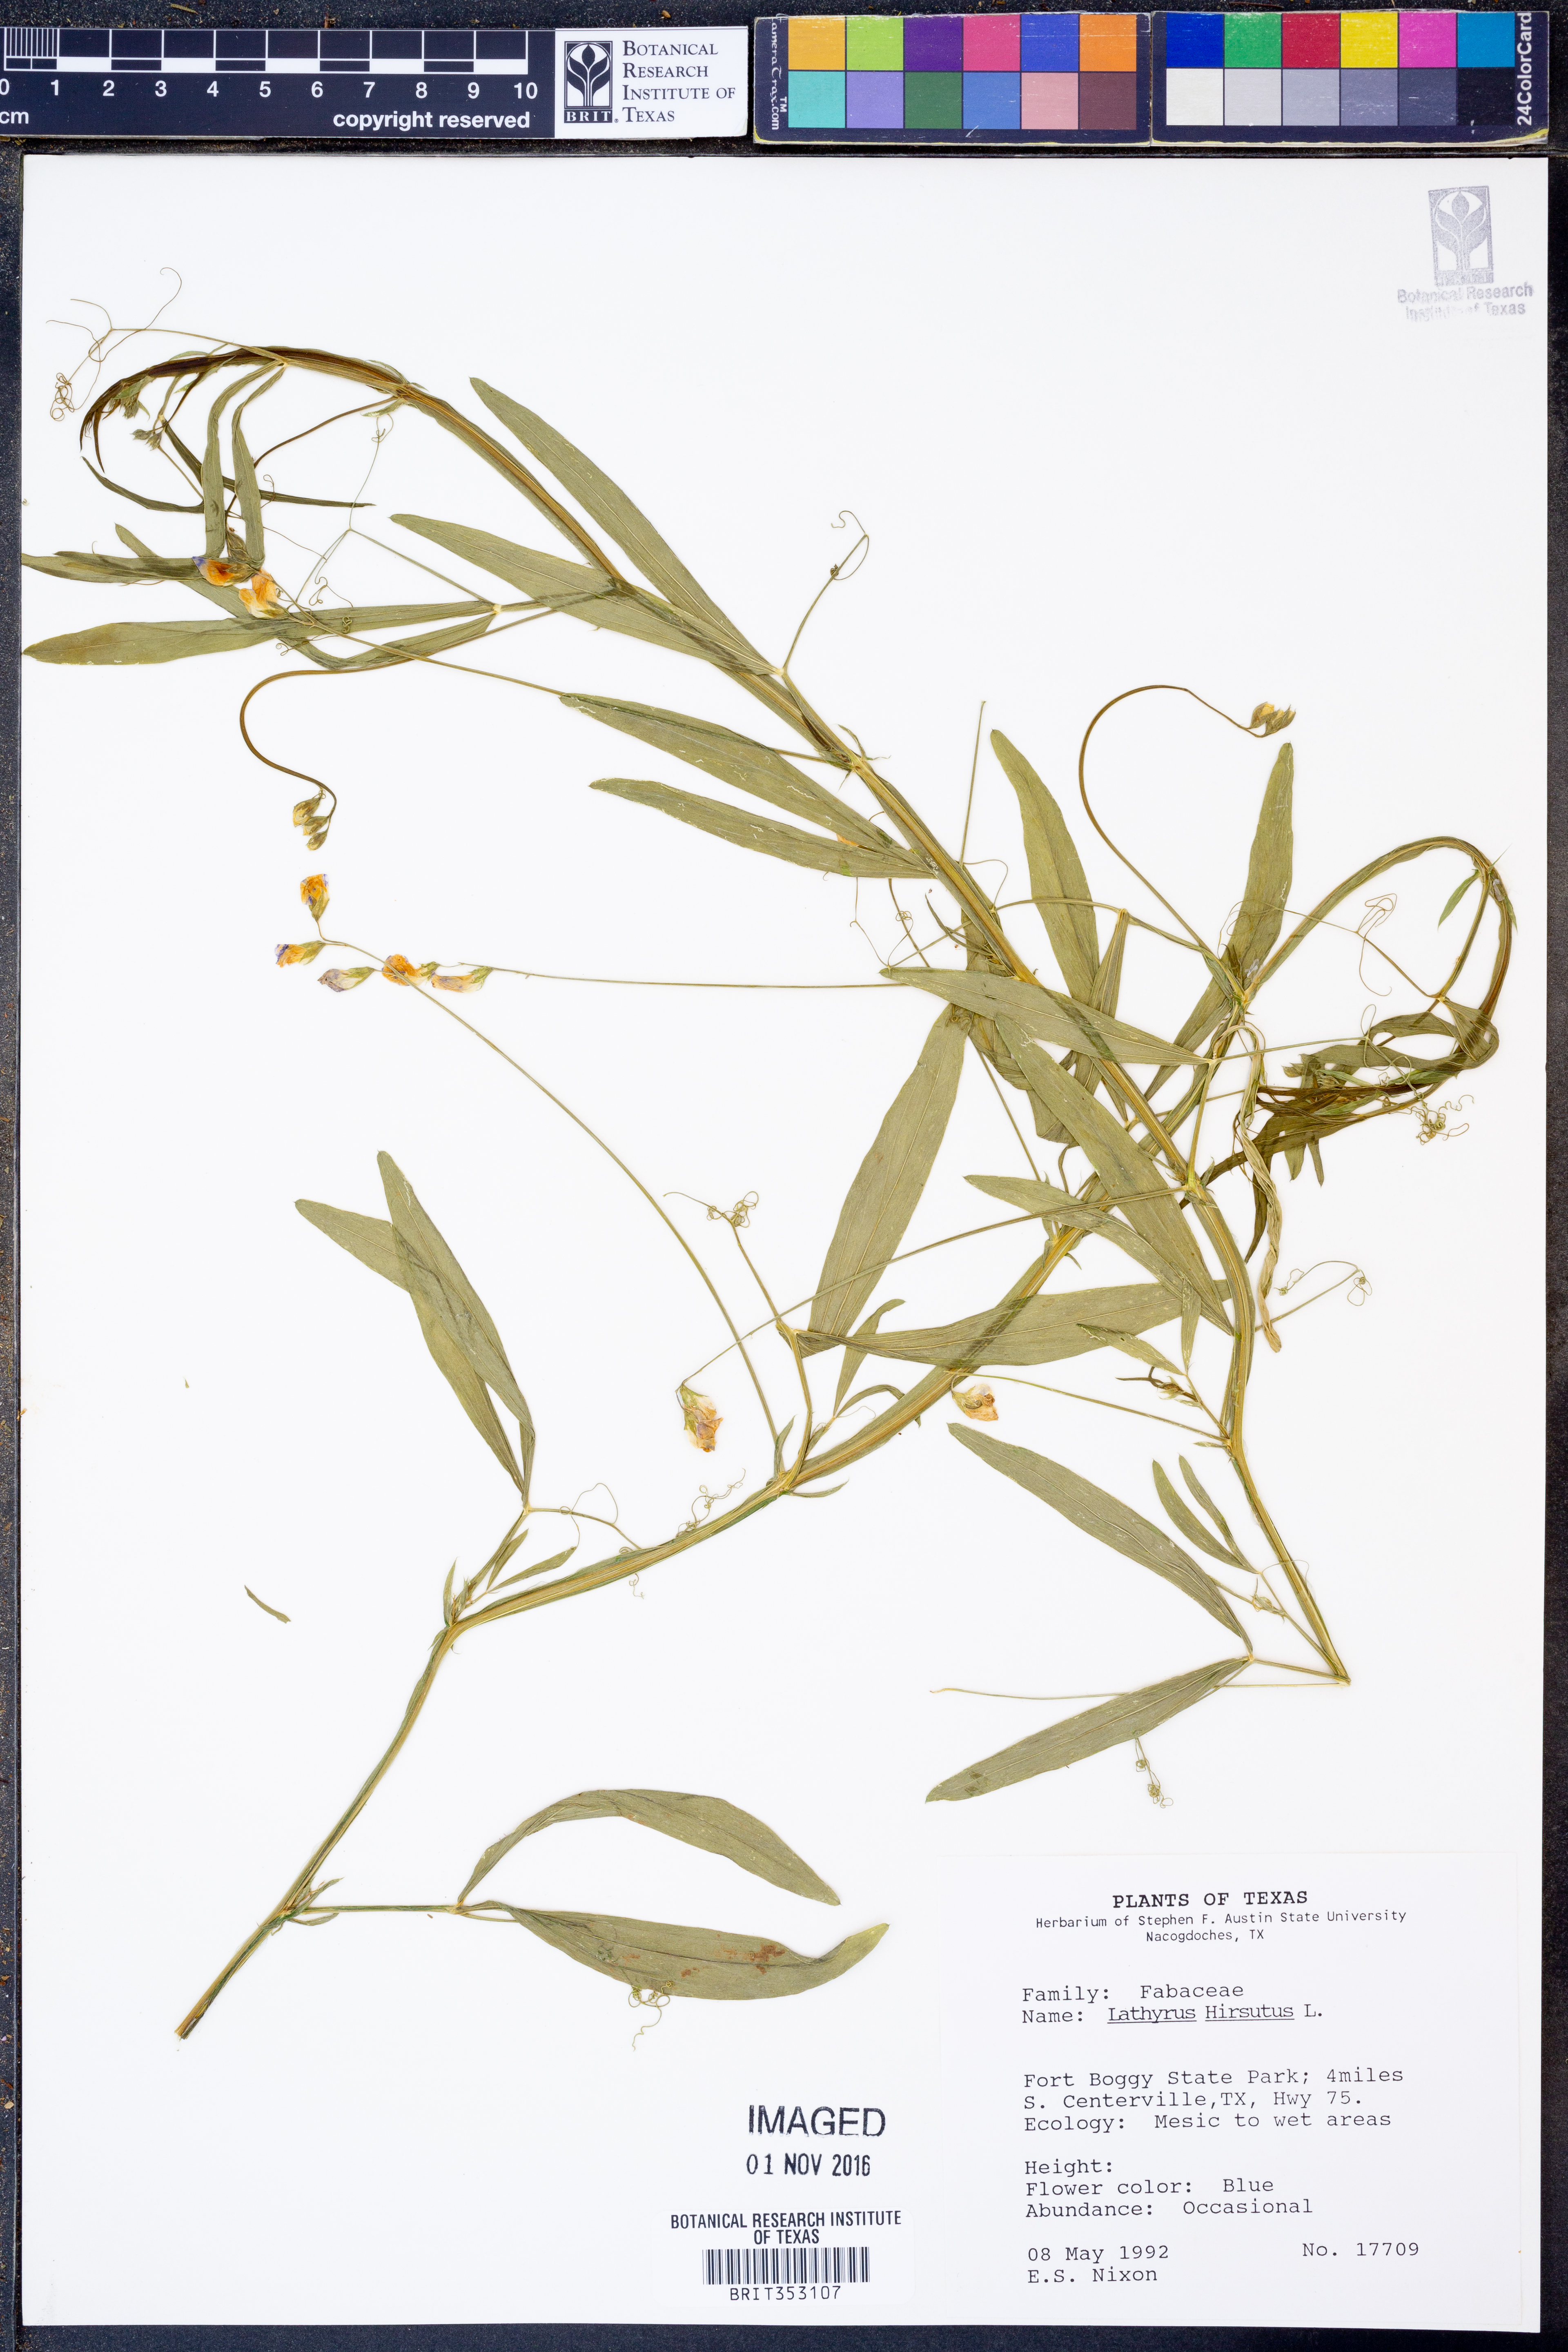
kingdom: Plantae
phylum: Tracheophyta
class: Magnoliopsida
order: Fabales
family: Fabaceae
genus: Lathyrus
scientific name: Lathyrus hirsutus
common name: Hairy vetchling
